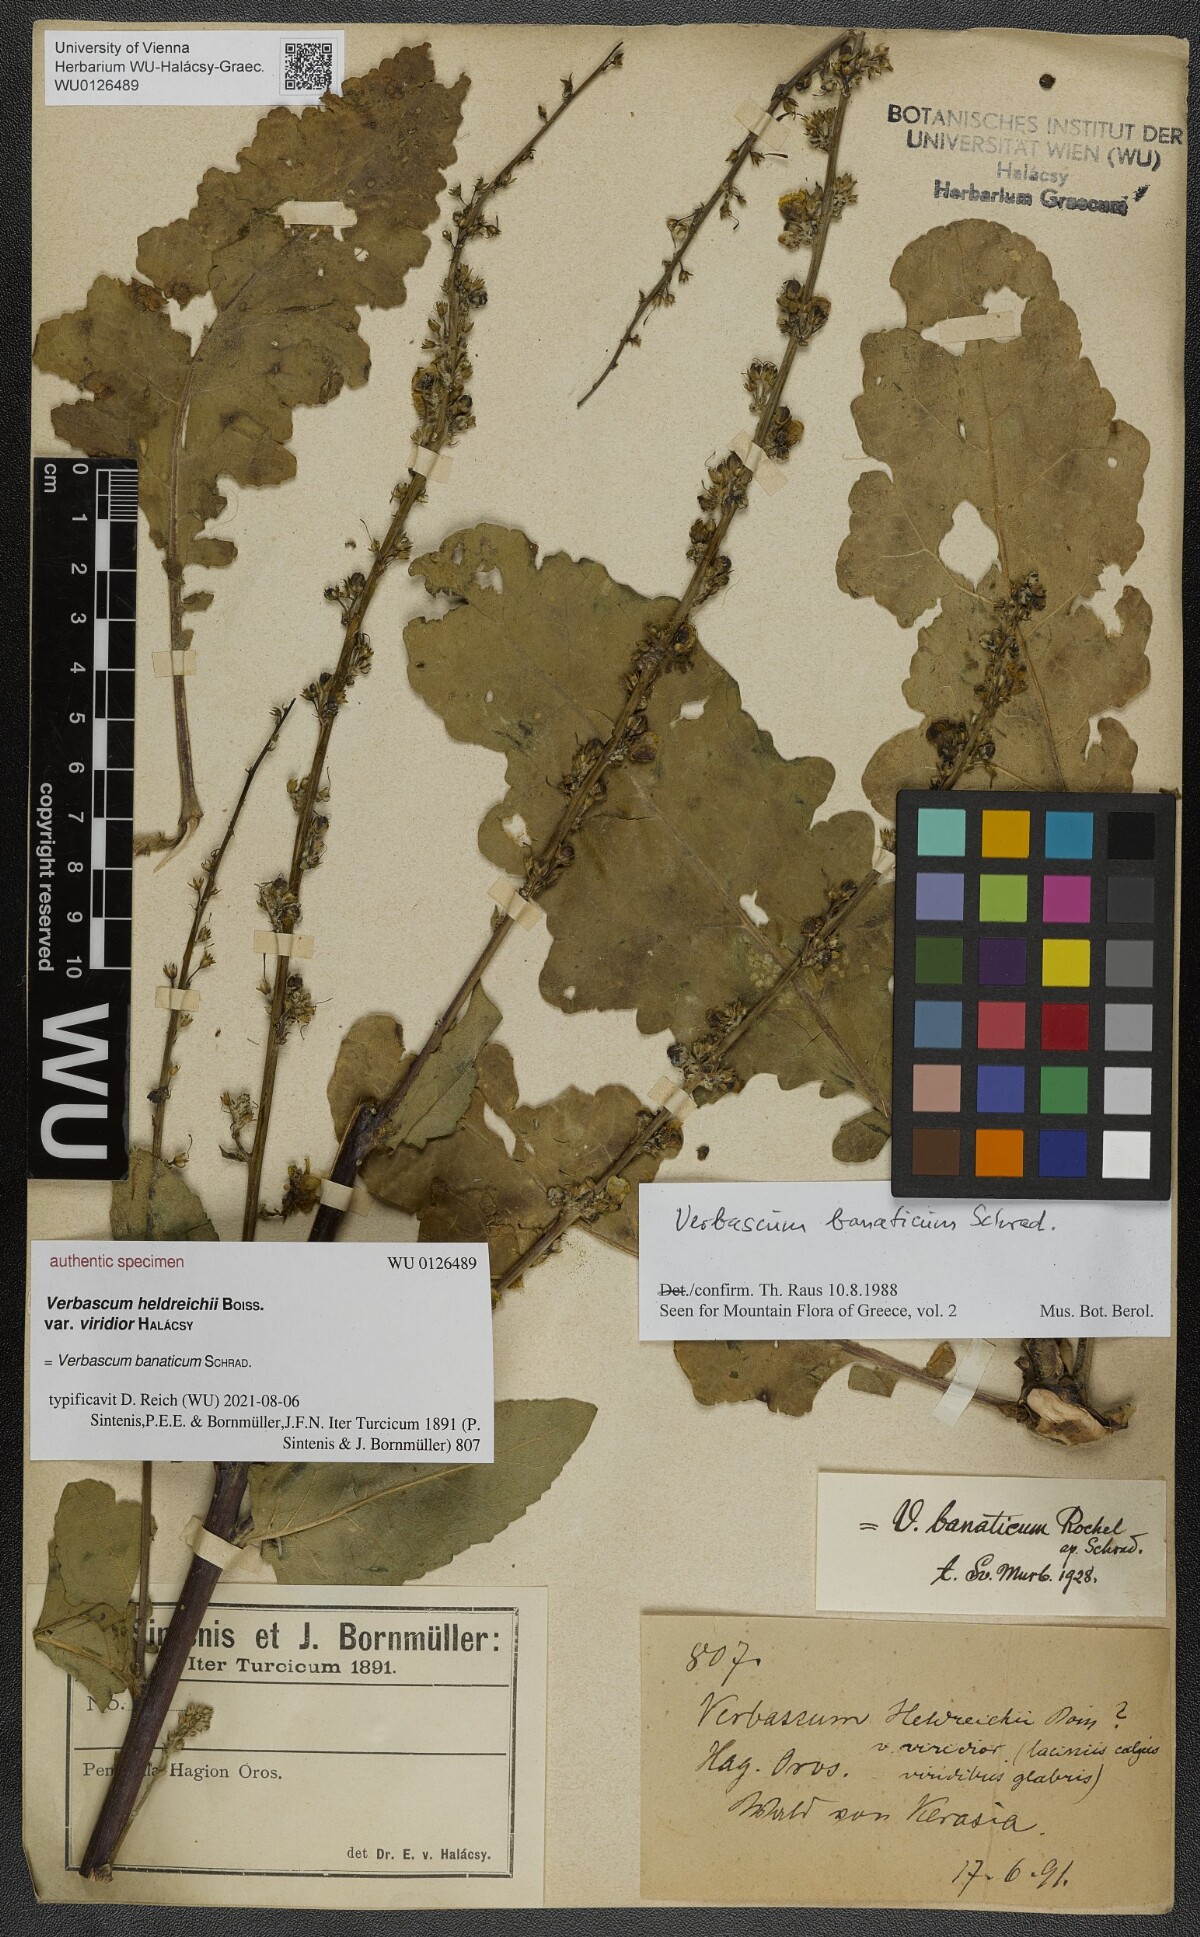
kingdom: Plantae
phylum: Tracheophyta
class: Magnoliopsida
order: Lamiales
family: Scrophulariaceae
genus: Verbascum
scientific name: Verbascum banaticum
